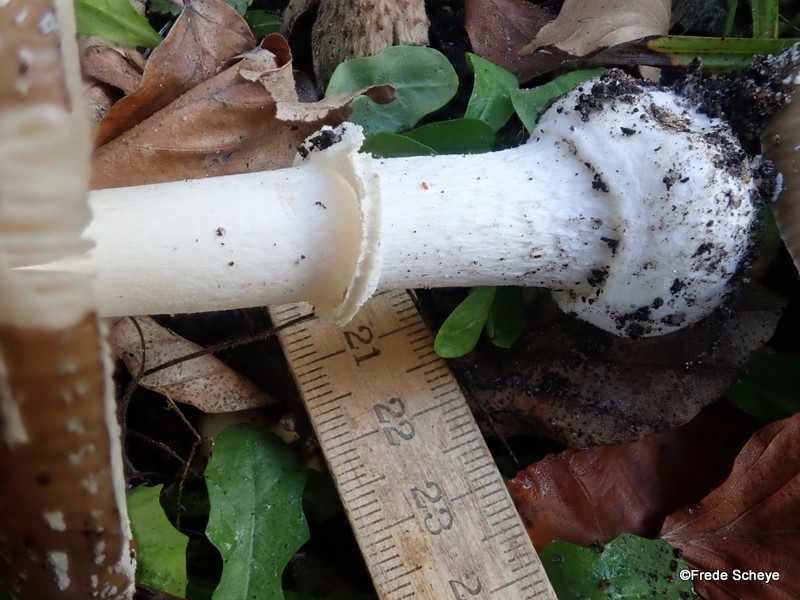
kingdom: Fungi
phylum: Basidiomycota
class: Agaricomycetes
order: Agaricales
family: Amanitaceae
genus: Amanita
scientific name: Amanita pantherina
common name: panter-fluesvamp
